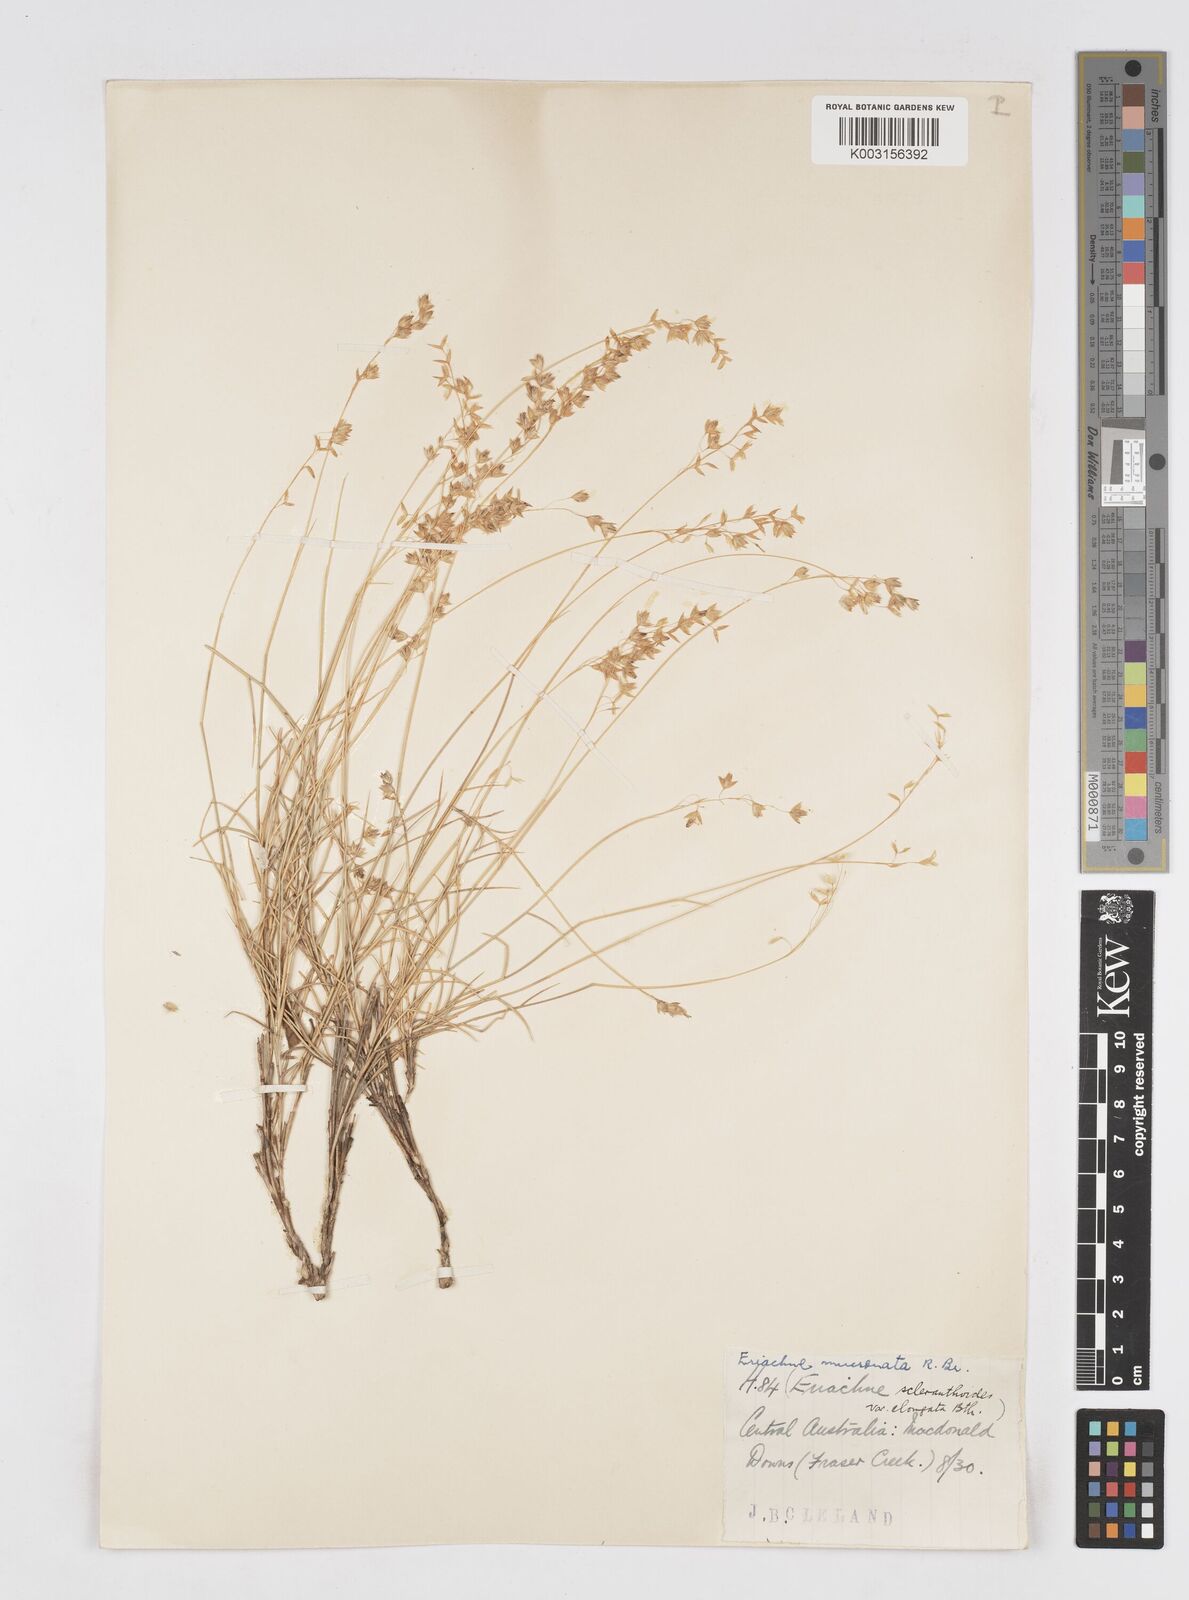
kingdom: Plantae
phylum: Tracheophyta
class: Liliopsida
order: Poales
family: Poaceae
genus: Eriachne
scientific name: Eriachne mucronata
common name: Mountain wanderrie grass
